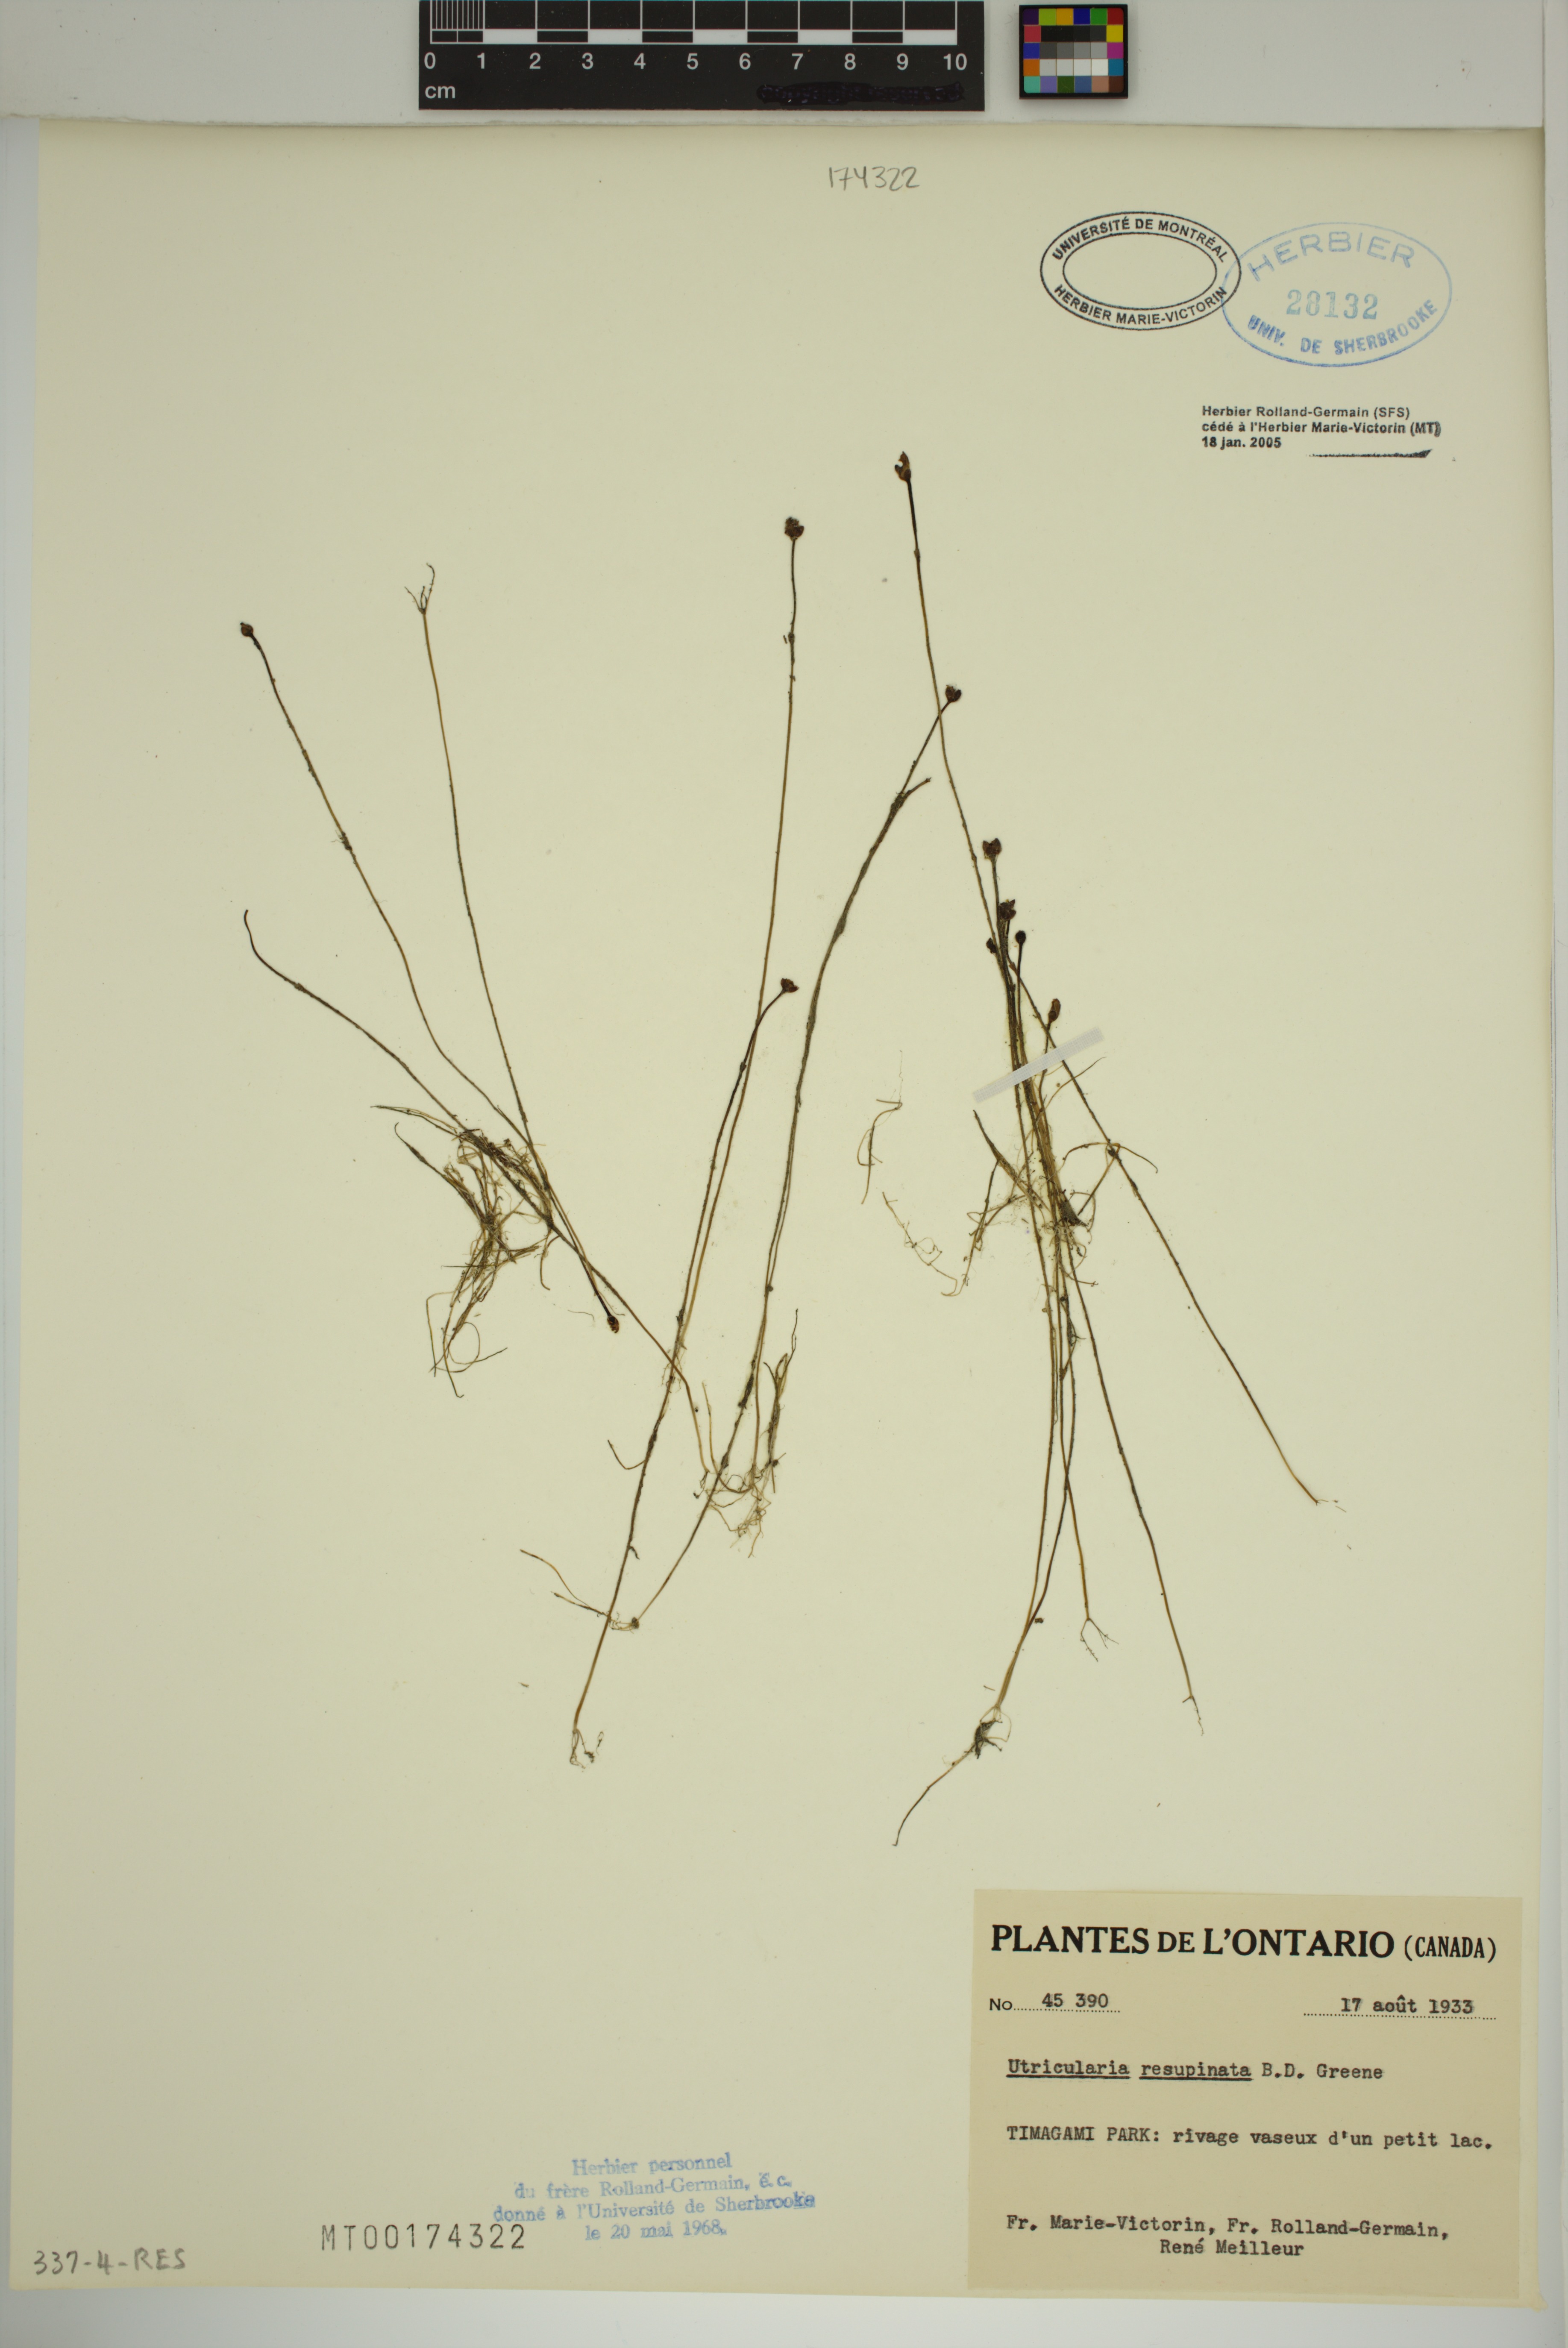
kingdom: Plantae
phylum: Tracheophyta
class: Magnoliopsida
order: Lamiales
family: Lentibulariaceae
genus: Utricularia
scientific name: Utricularia resupinata
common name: Northeastern bladderwort
